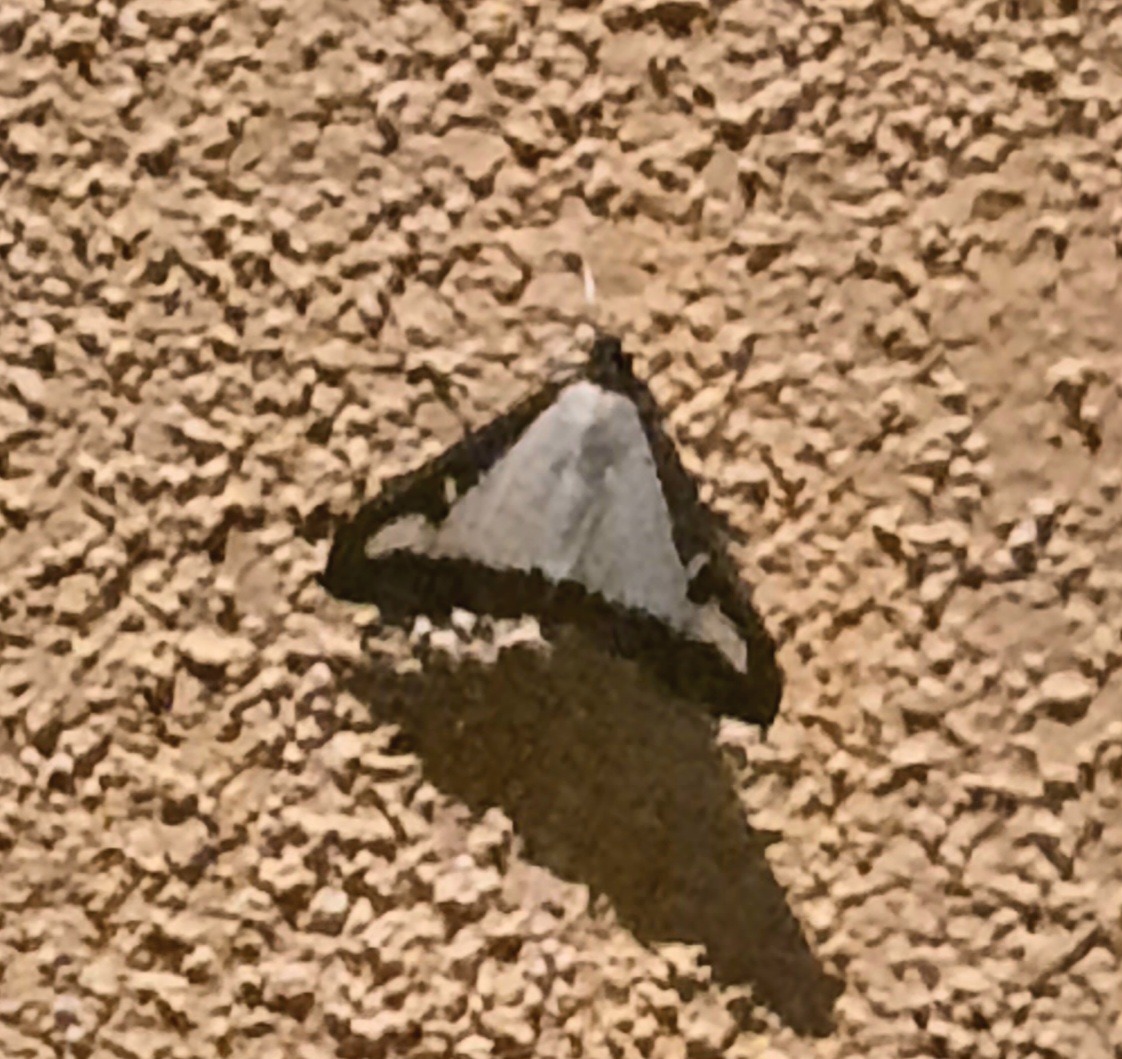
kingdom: Animalia
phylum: Arthropoda
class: Insecta
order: Lepidoptera
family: Crambidae
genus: Cydalima
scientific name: Cydalima perspectalis
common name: Buksbomhalvmøl
